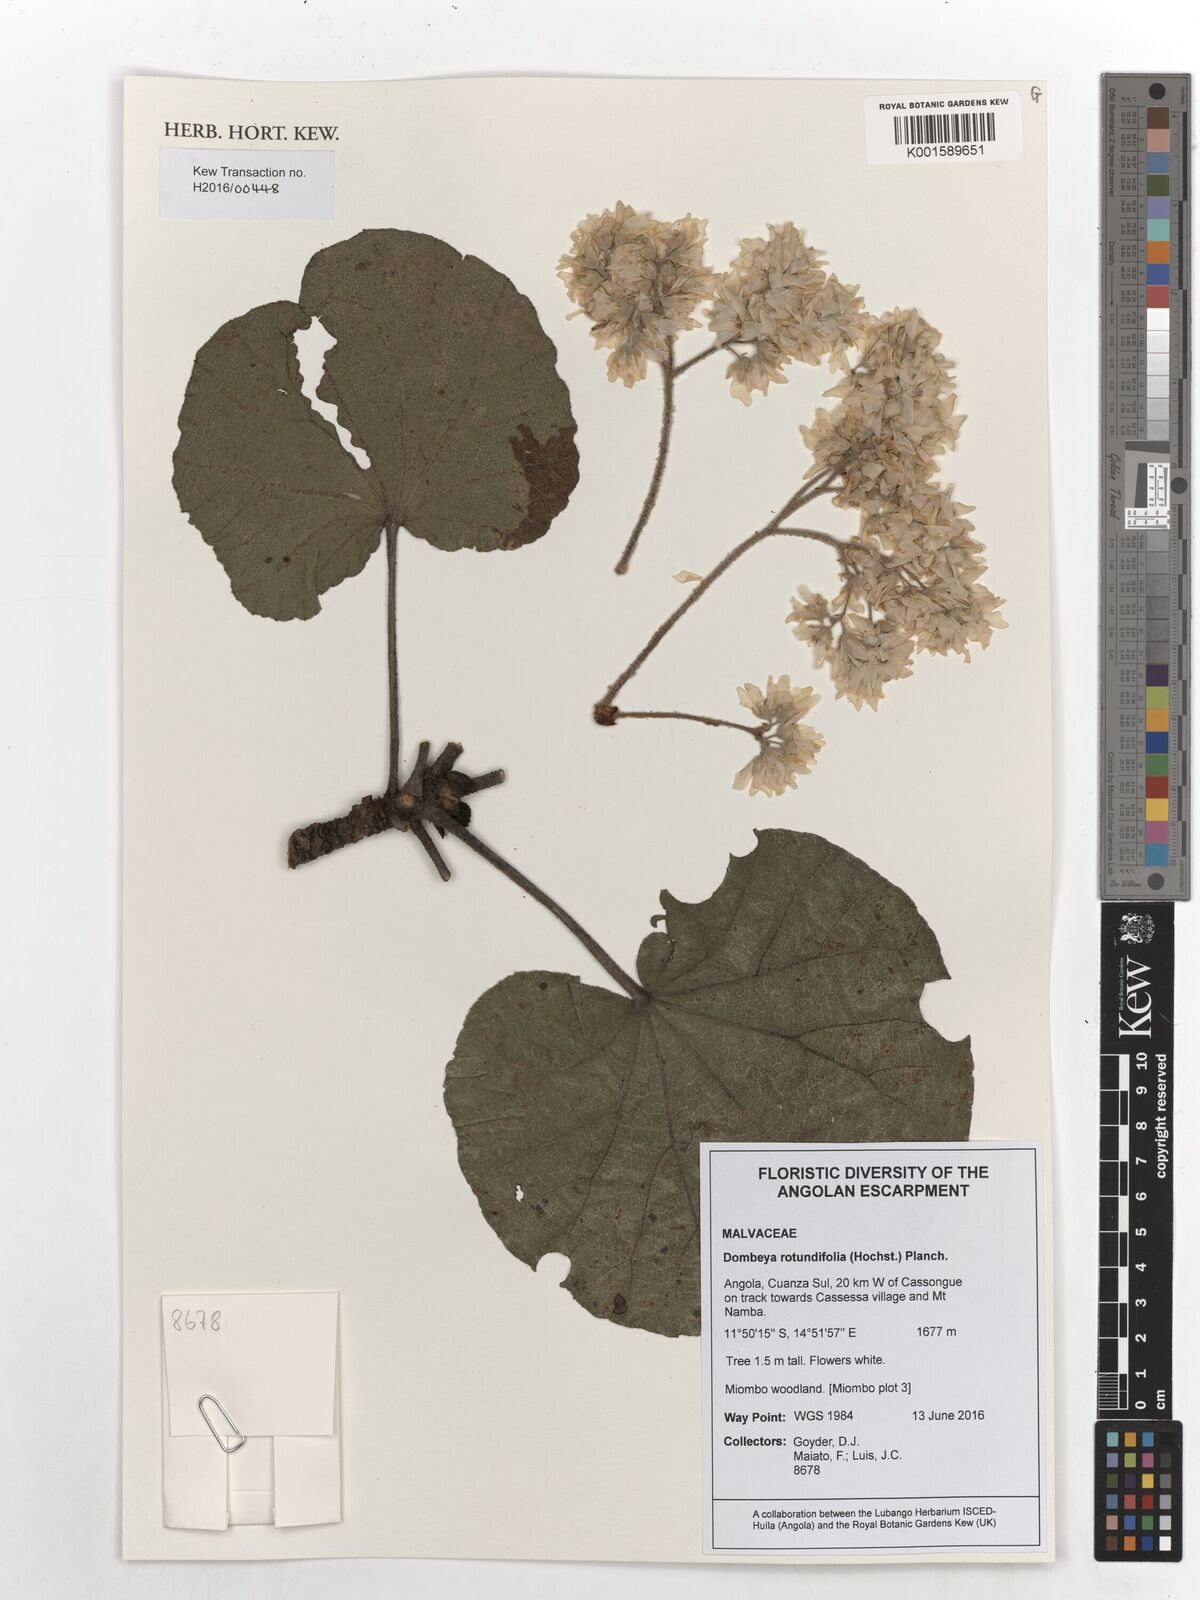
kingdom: Plantae
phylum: Tracheophyta
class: Magnoliopsida
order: Malvales
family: Malvaceae
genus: Dombeya
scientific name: Dombeya rotundifolia
